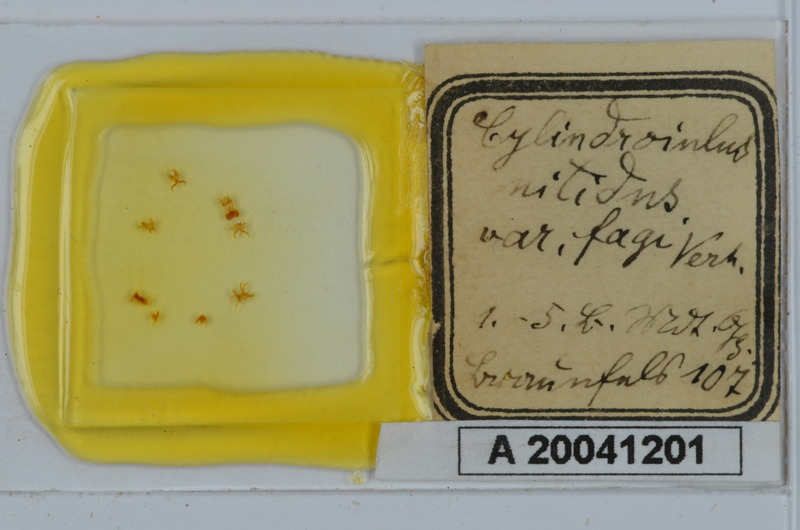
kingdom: Animalia
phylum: Arthropoda
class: Diplopoda
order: Julida
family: Julidae
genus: Allajulus
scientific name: Allajulus nitidus
